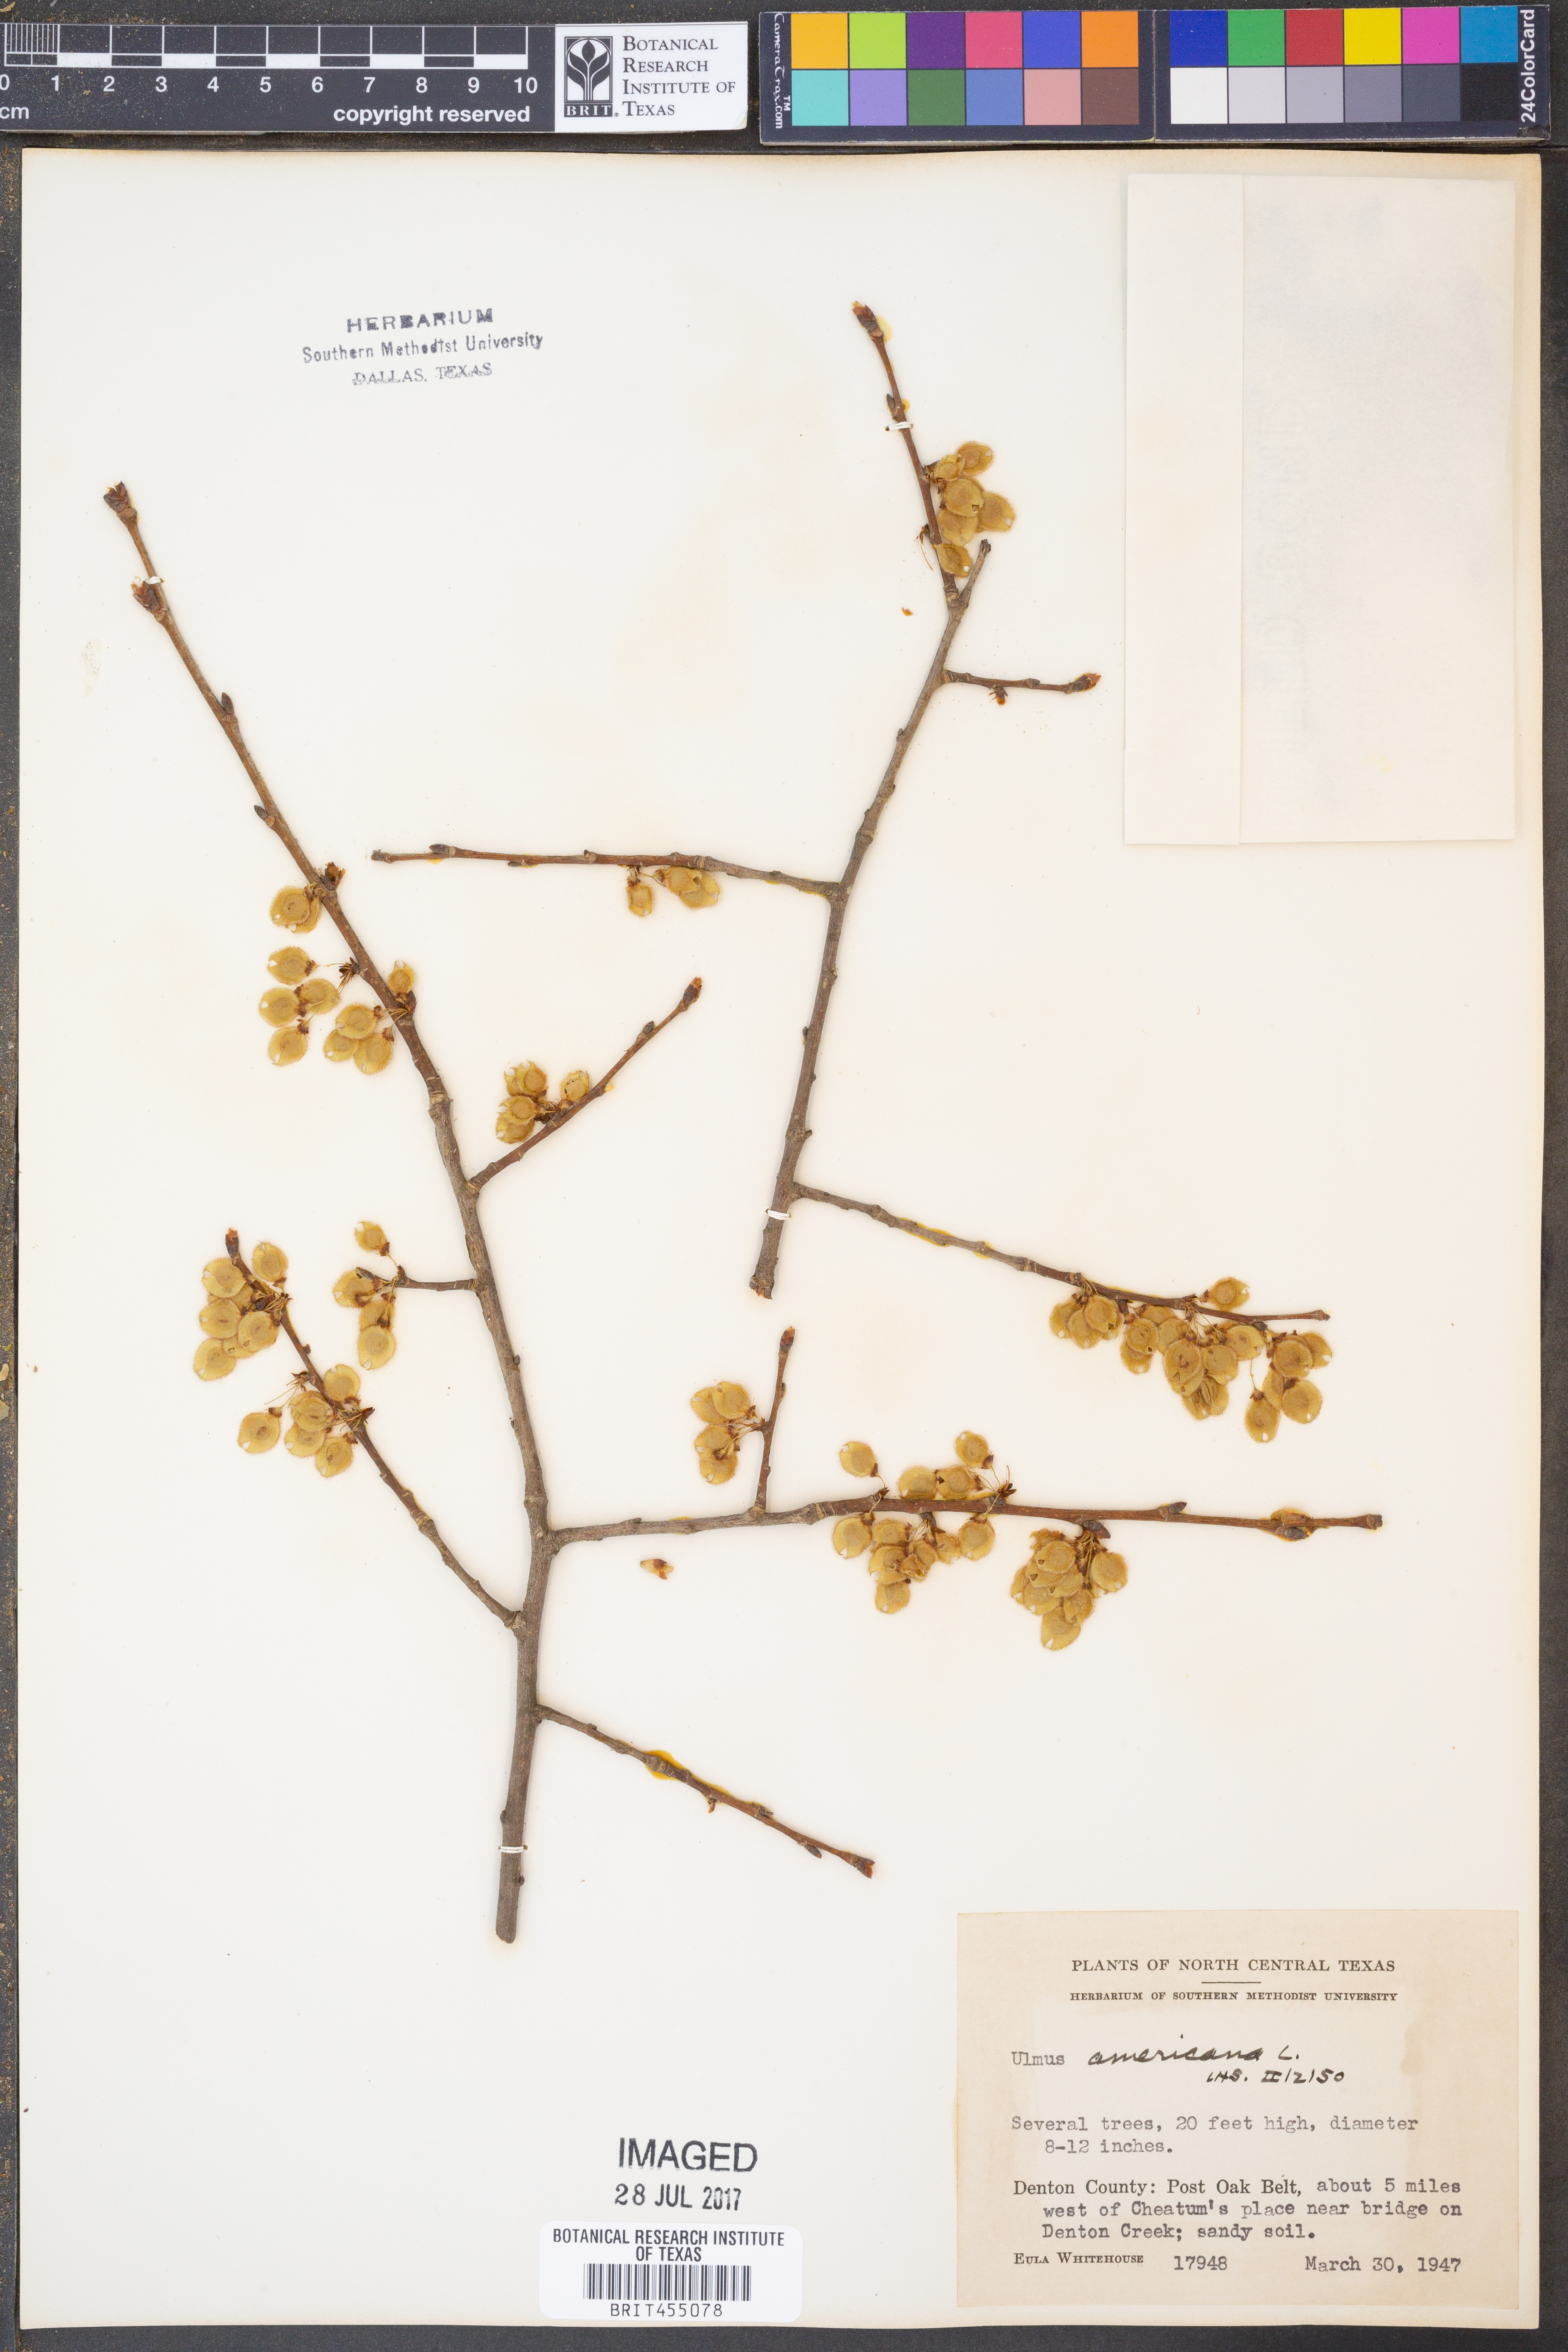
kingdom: Plantae
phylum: Tracheophyta
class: Magnoliopsida
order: Rosales
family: Ulmaceae
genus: Ulmus
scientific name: Ulmus americana
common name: American elm
